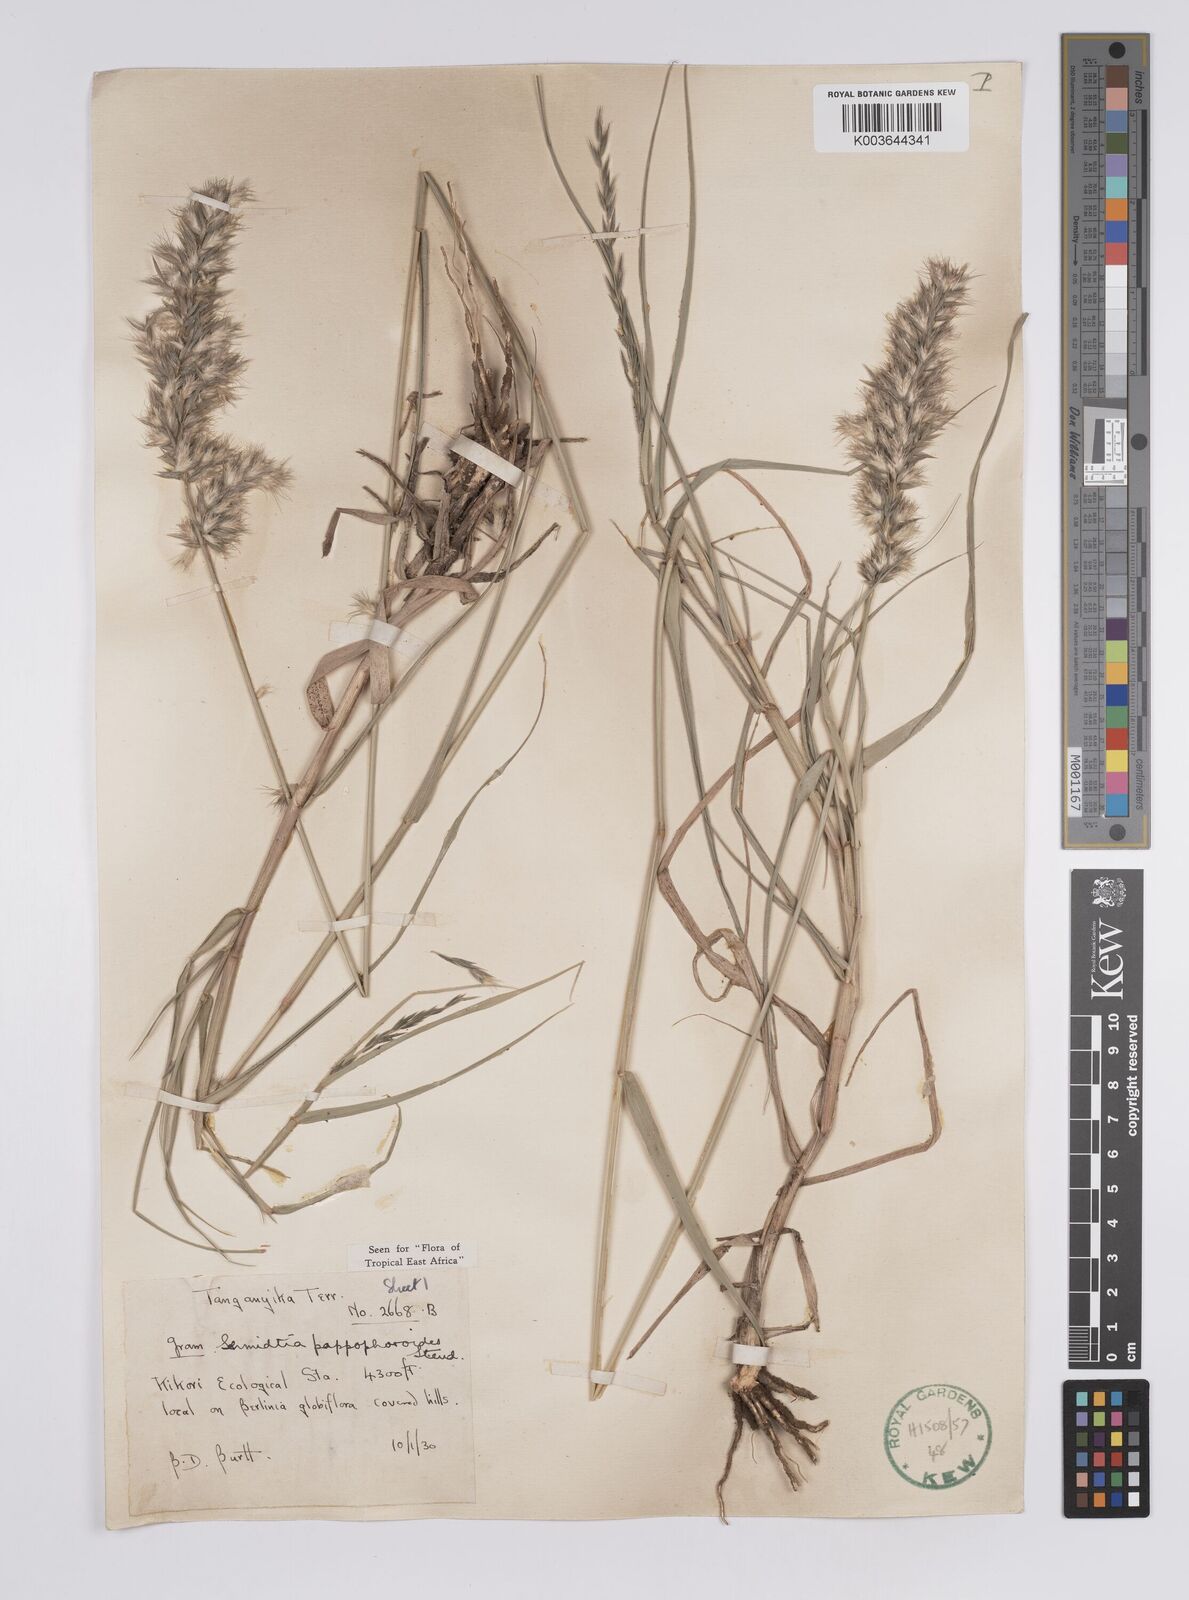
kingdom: Plantae
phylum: Tracheophyta
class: Liliopsida
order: Poales
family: Poaceae
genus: Schmidtia
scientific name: Schmidtia pappophoroides
